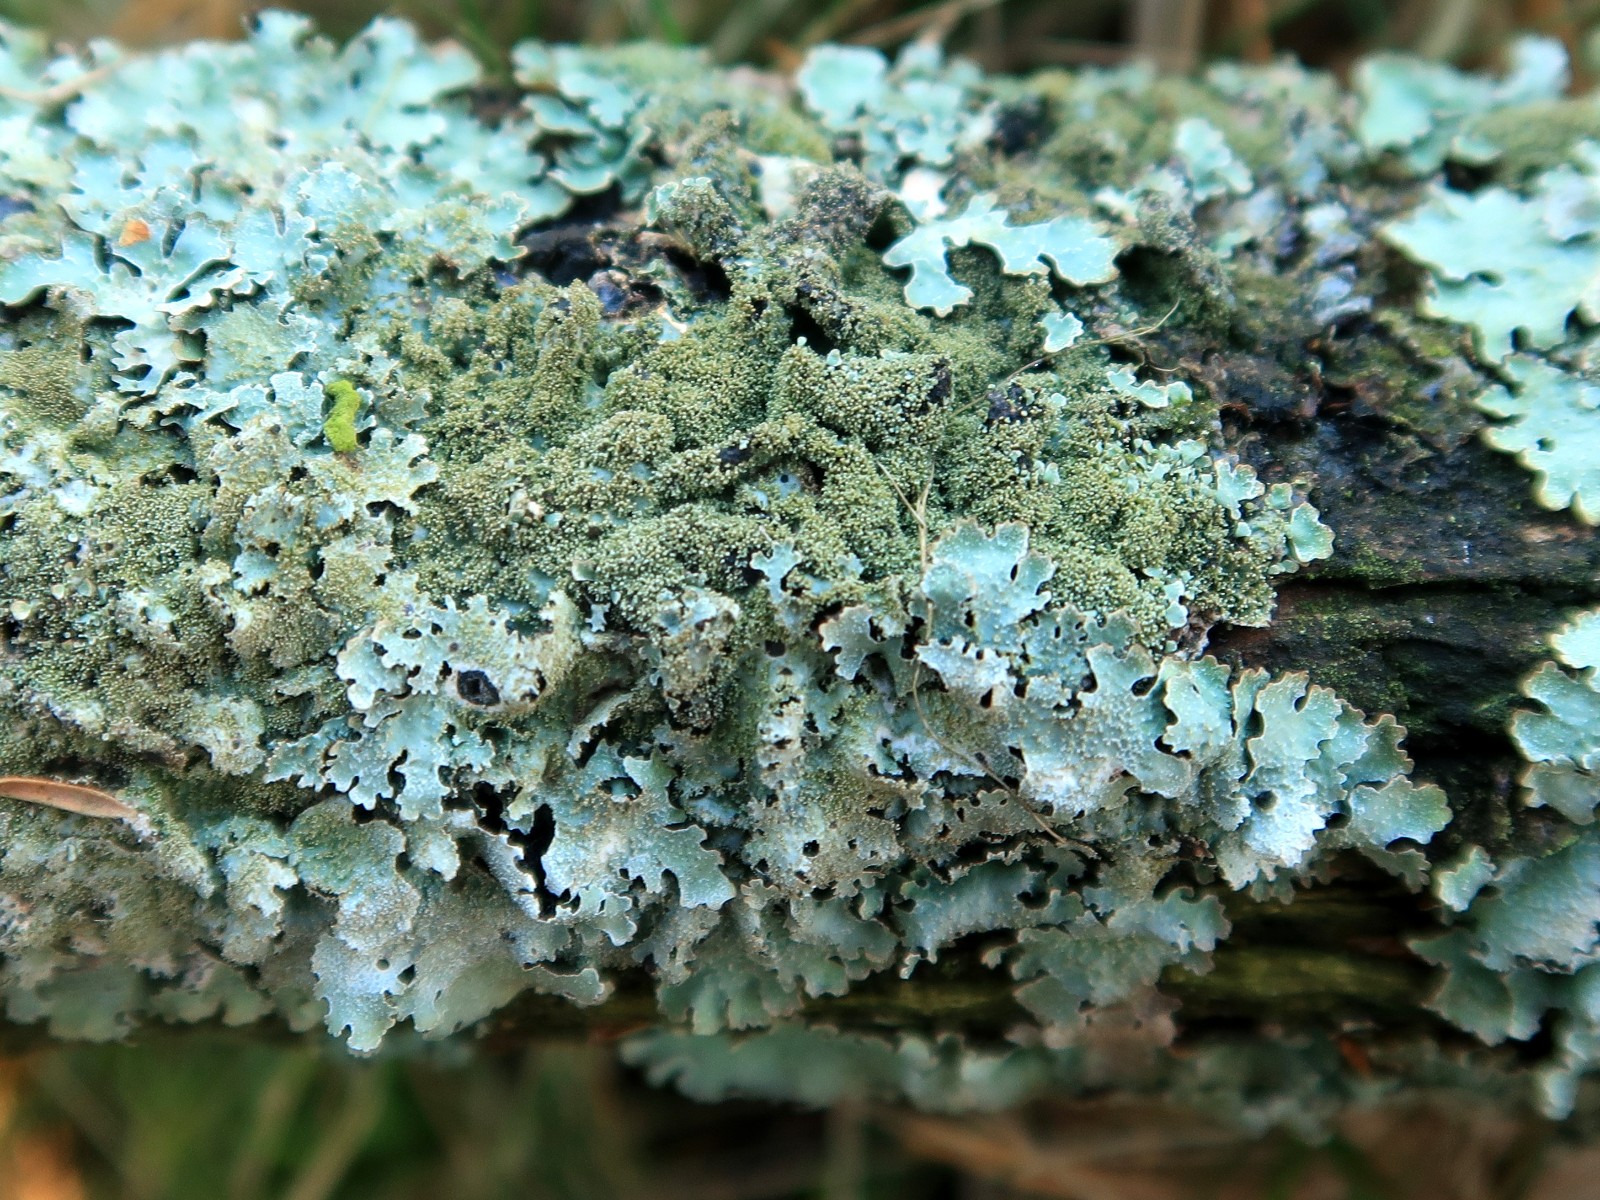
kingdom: Fungi
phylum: Ascomycota
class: Lecanoromycetes
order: Lecanorales
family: Parmeliaceae
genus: Parmelia
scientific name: Parmelia ernstiae
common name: rimstift-skållav
